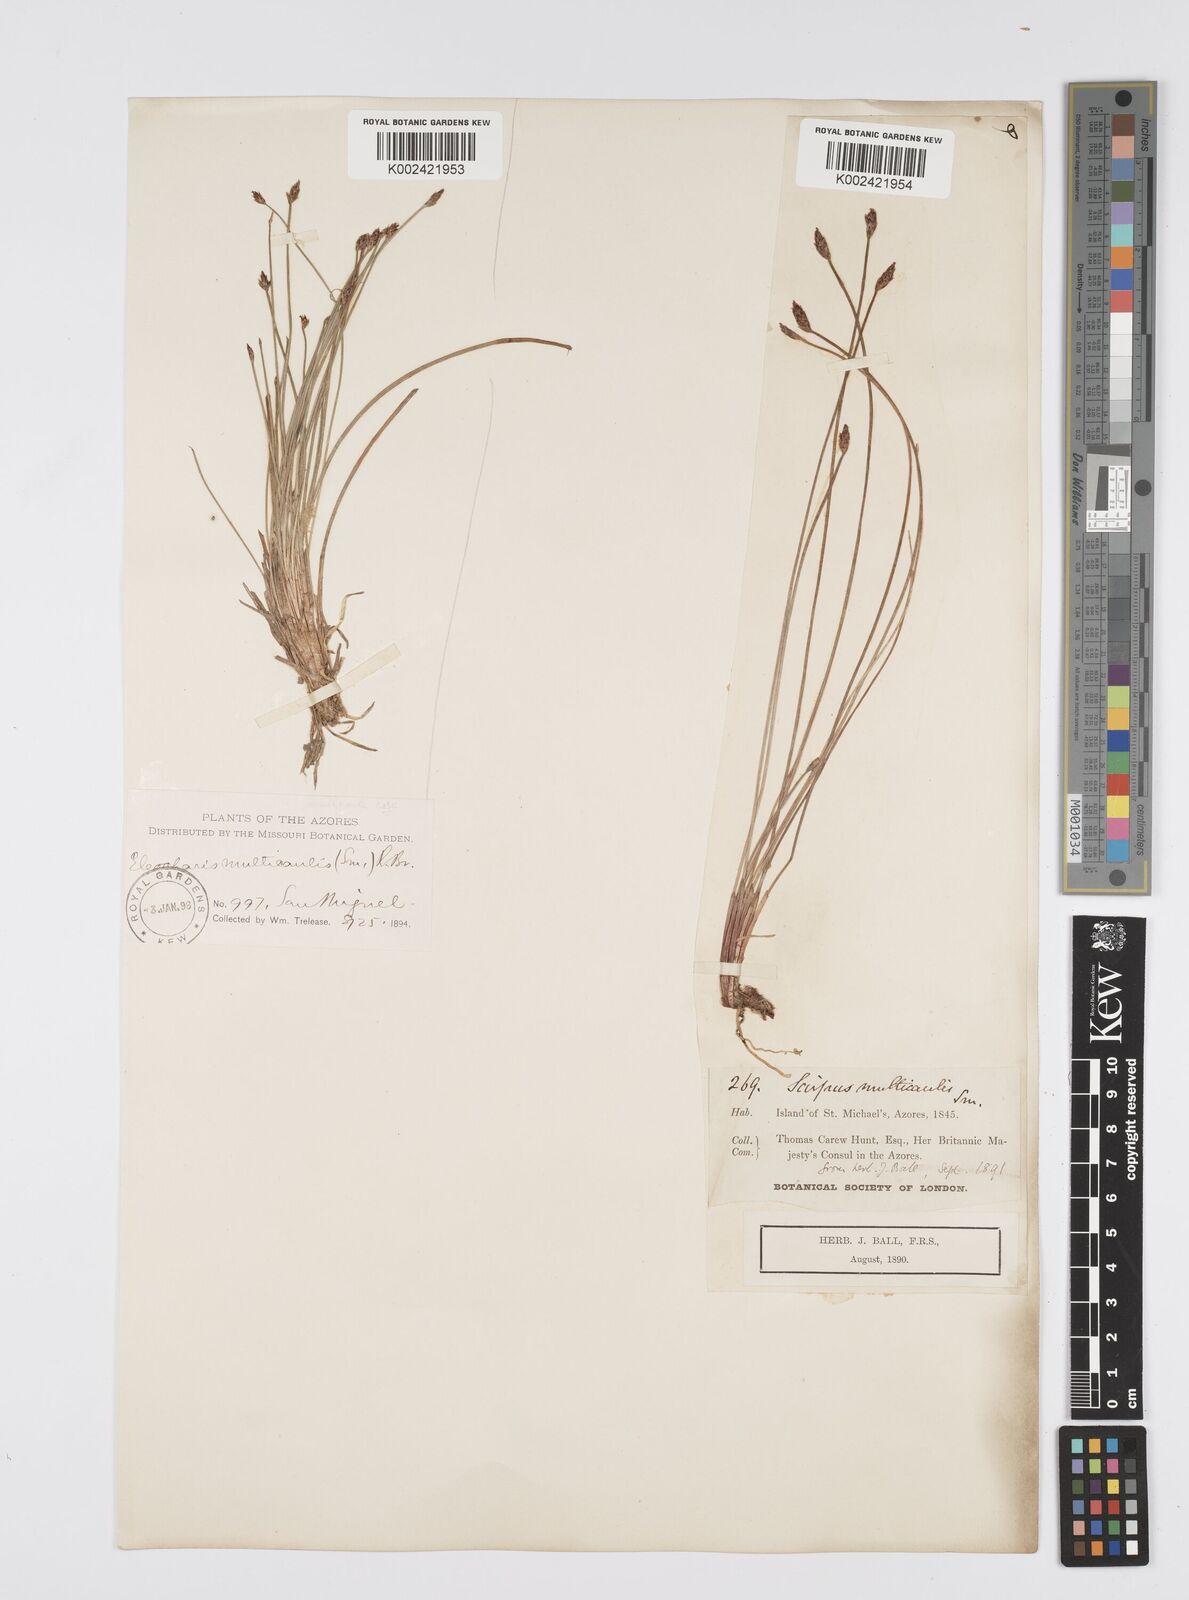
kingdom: Plantae
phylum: Tracheophyta
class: Liliopsida
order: Poales
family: Cyperaceae
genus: Eleocharis
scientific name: Eleocharis multicaulis
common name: Many-stalked spike-rush
